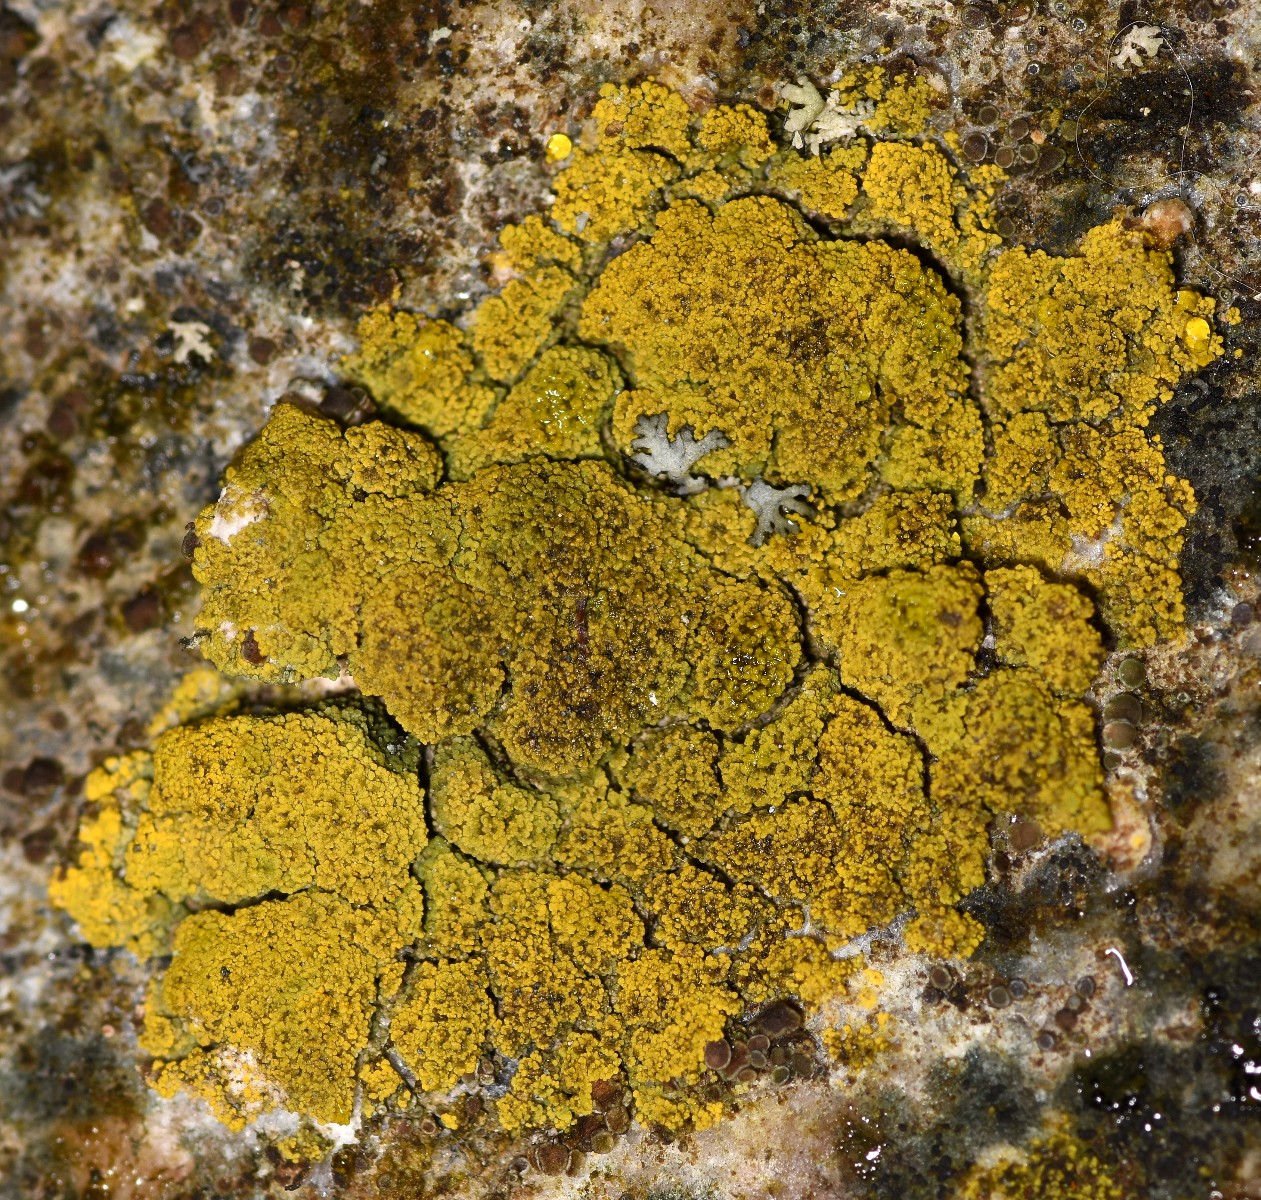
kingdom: Fungi
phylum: Ascomycota
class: Candelariomycetes
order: Candelariales
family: Candelariaceae
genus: Candelariella
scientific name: Candelariella vitellina
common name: almindelig æggeblommelav
